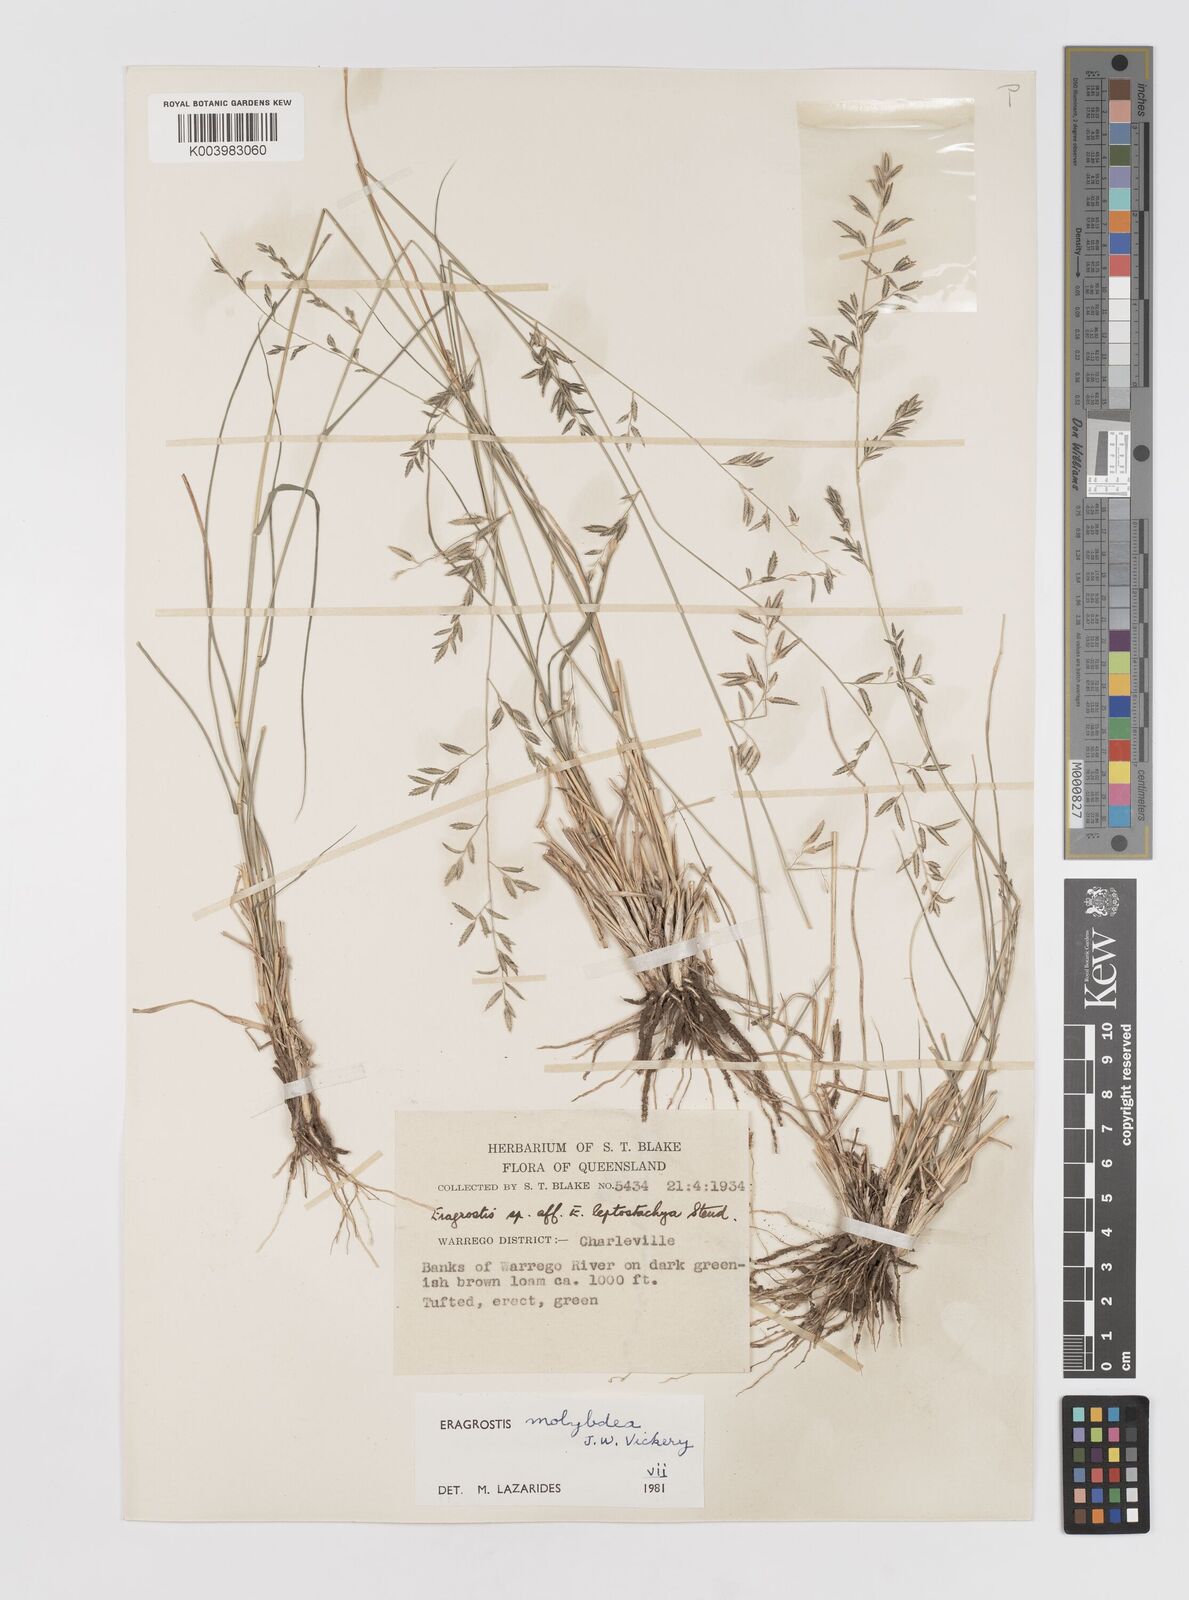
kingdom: Plantae
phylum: Tracheophyta
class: Liliopsida
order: Poales
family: Poaceae
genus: Eragrostis
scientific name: Eragrostis leptostachya
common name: Australian lovegrass
